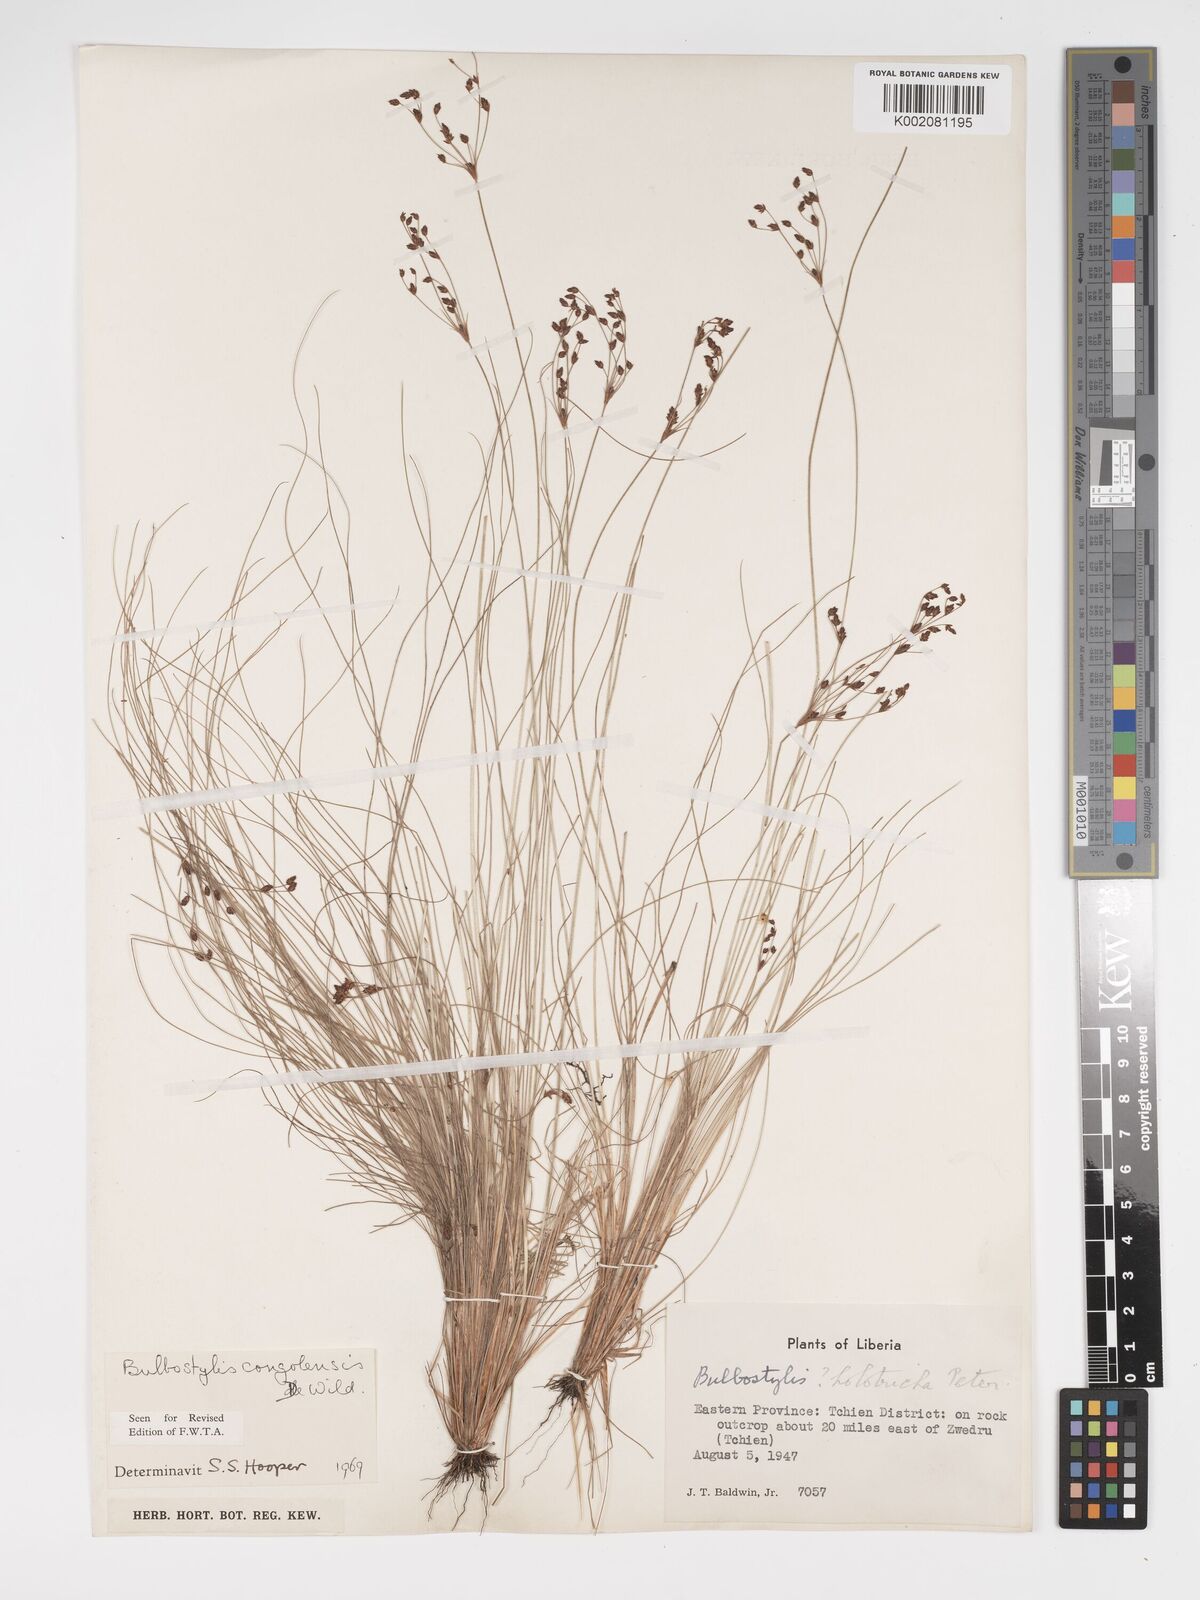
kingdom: Plantae
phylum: Tracheophyta
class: Liliopsida
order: Poales
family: Cyperaceae
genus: Bulbostylis
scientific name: Bulbostylis congolensis
